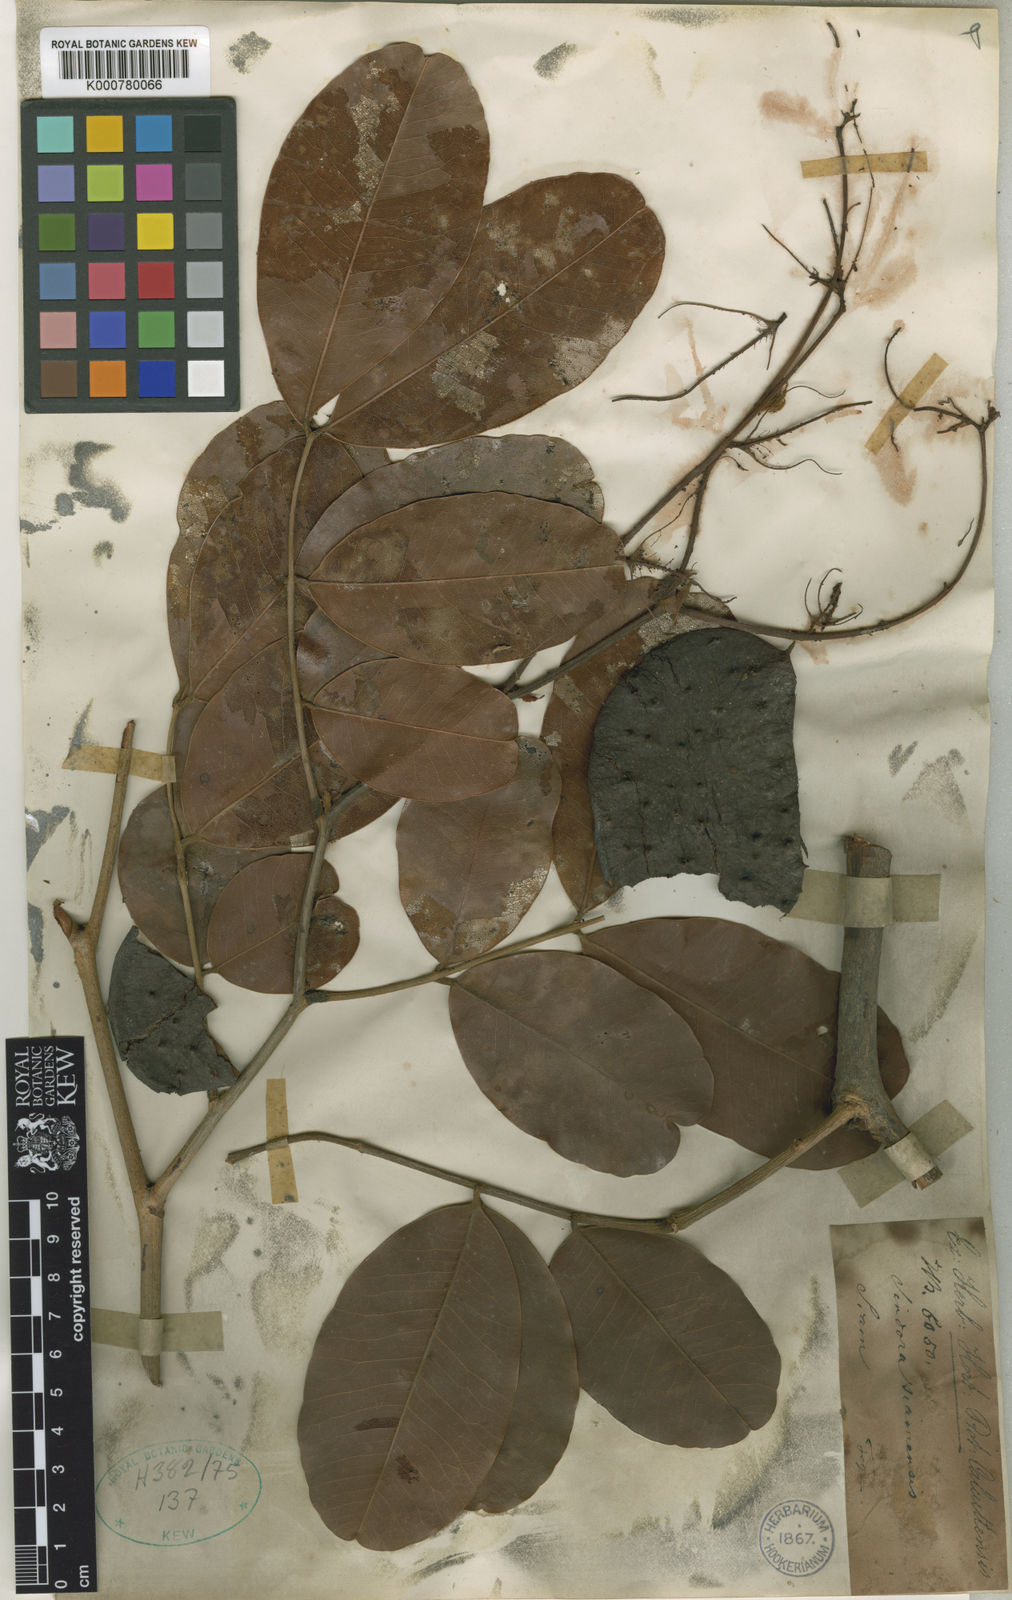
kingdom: Plantae
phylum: Tracheophyta
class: Magnoliopsida
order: Fabales
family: Fabaceae
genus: Sindora
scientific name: Sindora echinocalyx
